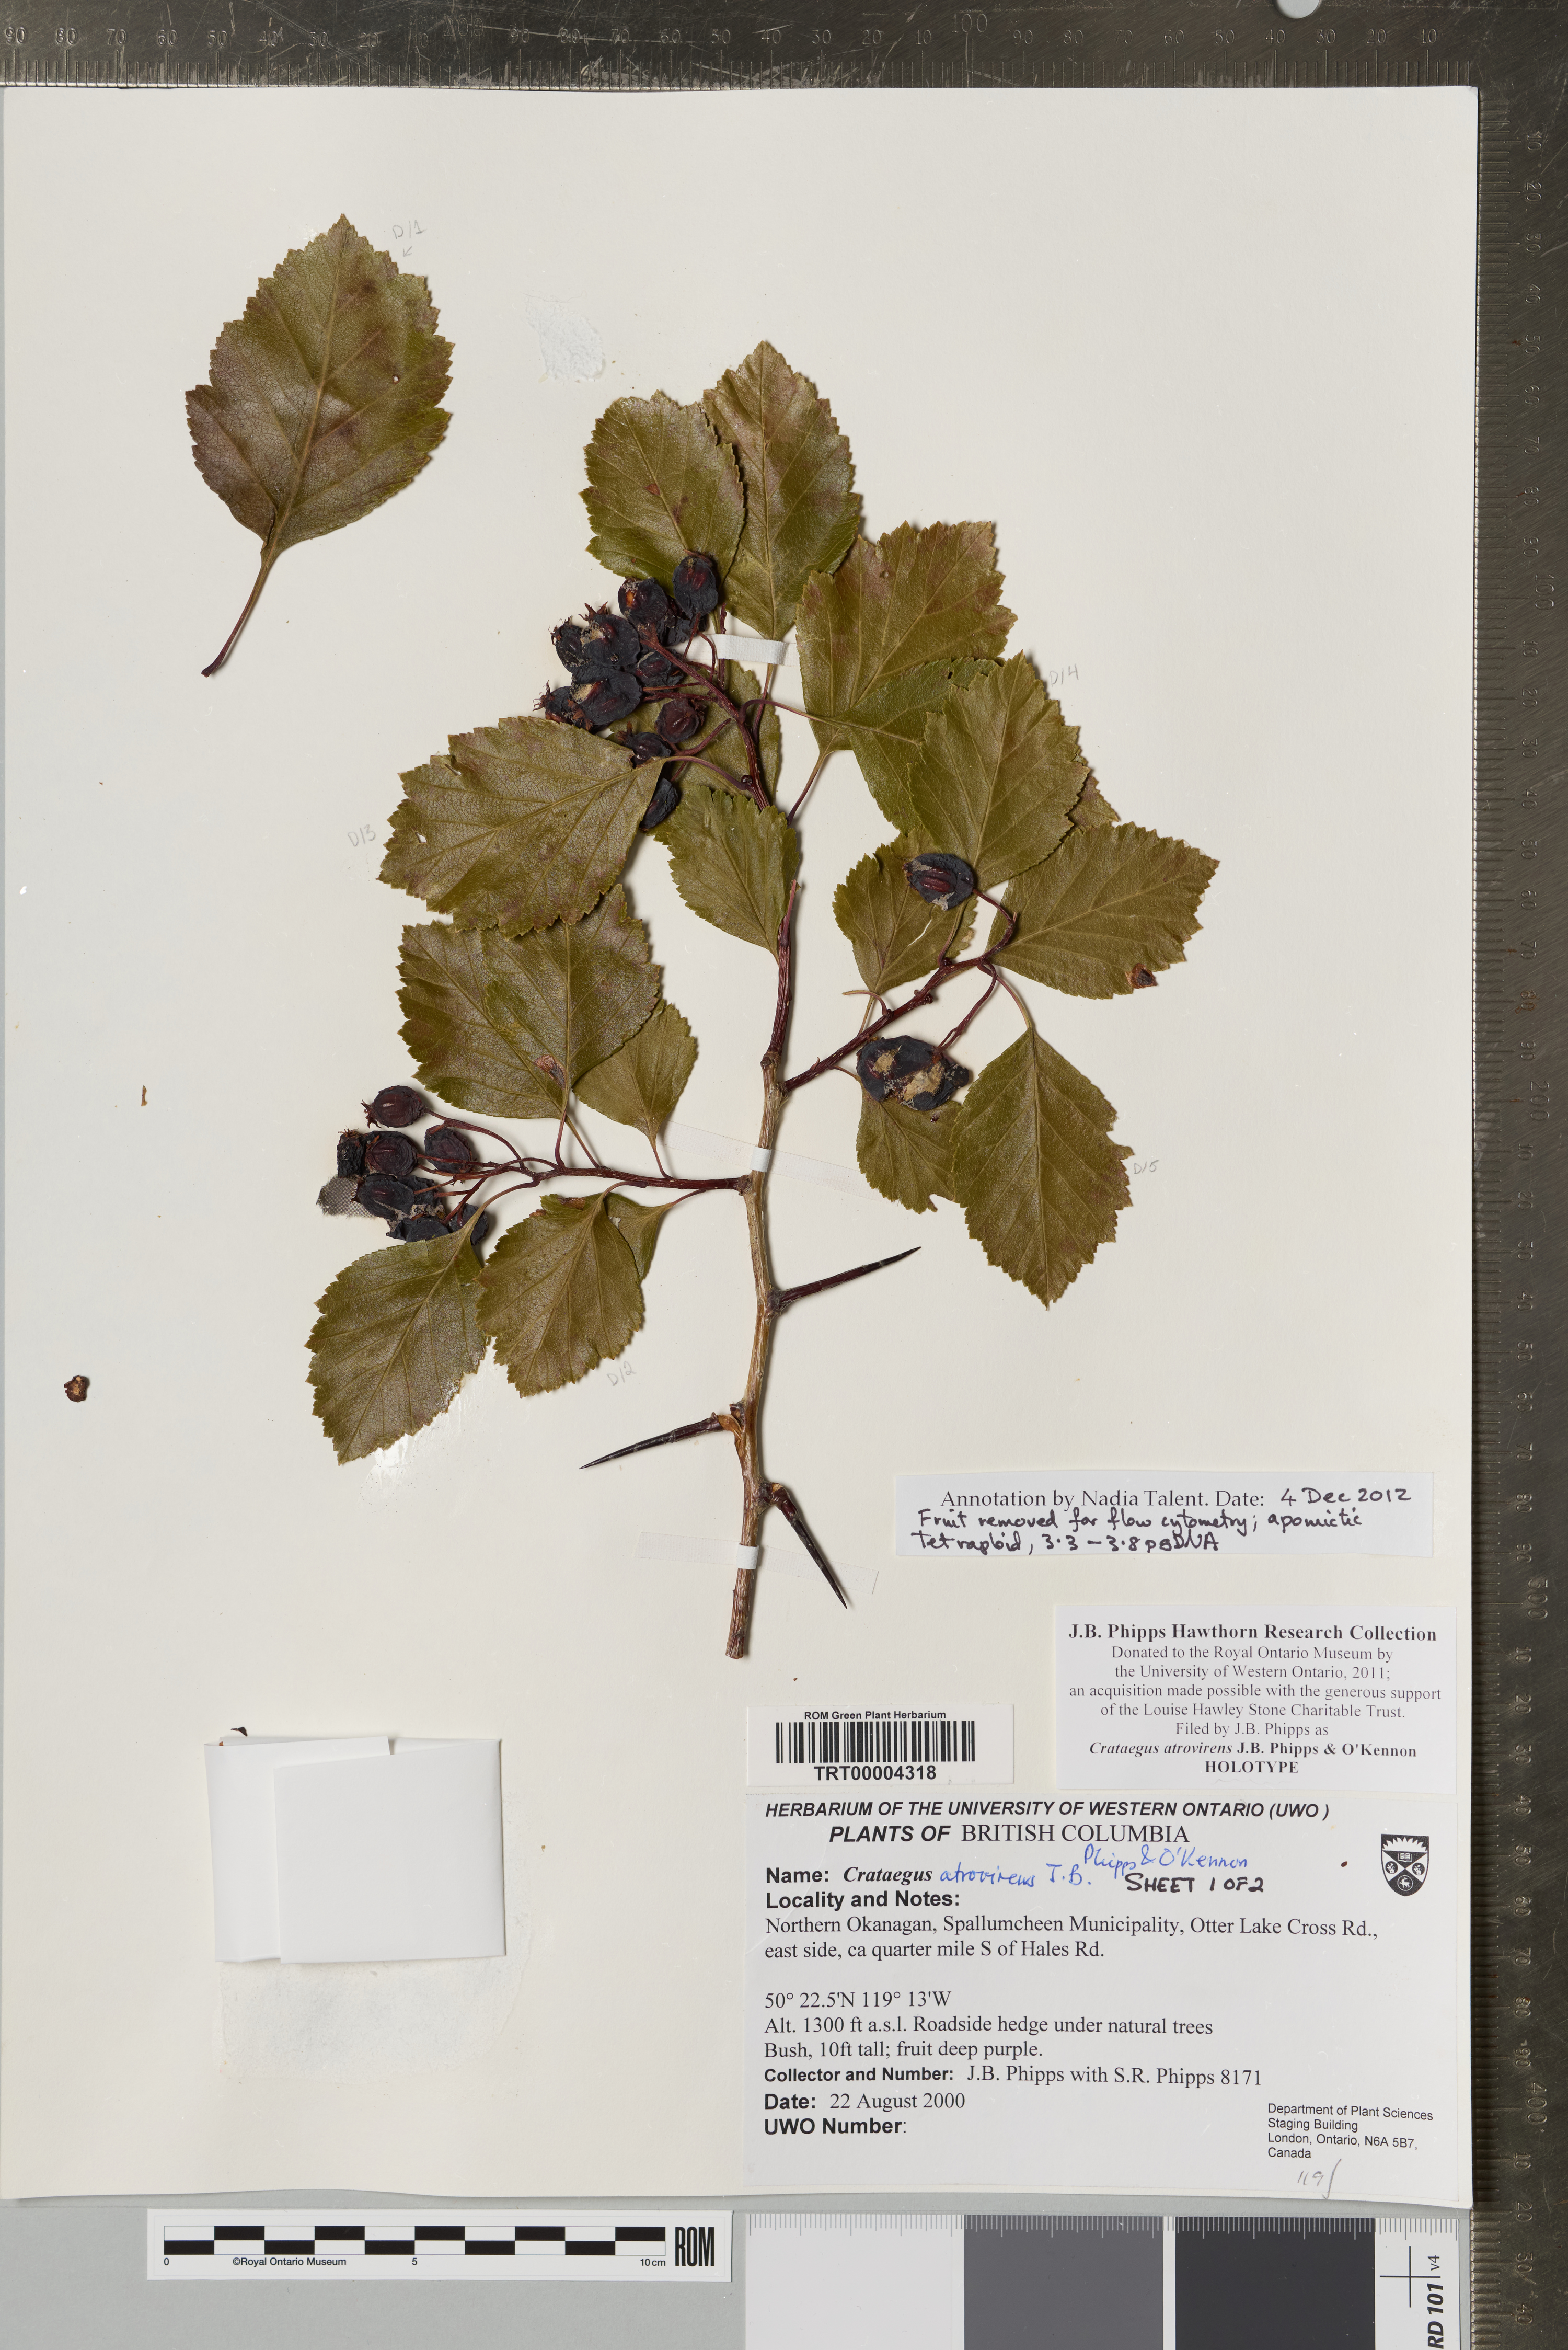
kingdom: Plantae
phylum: Tracheophyta
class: Magnoliopsida
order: Rosales
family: Rosaceae
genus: Crataegus
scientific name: Crataegus atrovirens
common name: Dark green hawthorn
